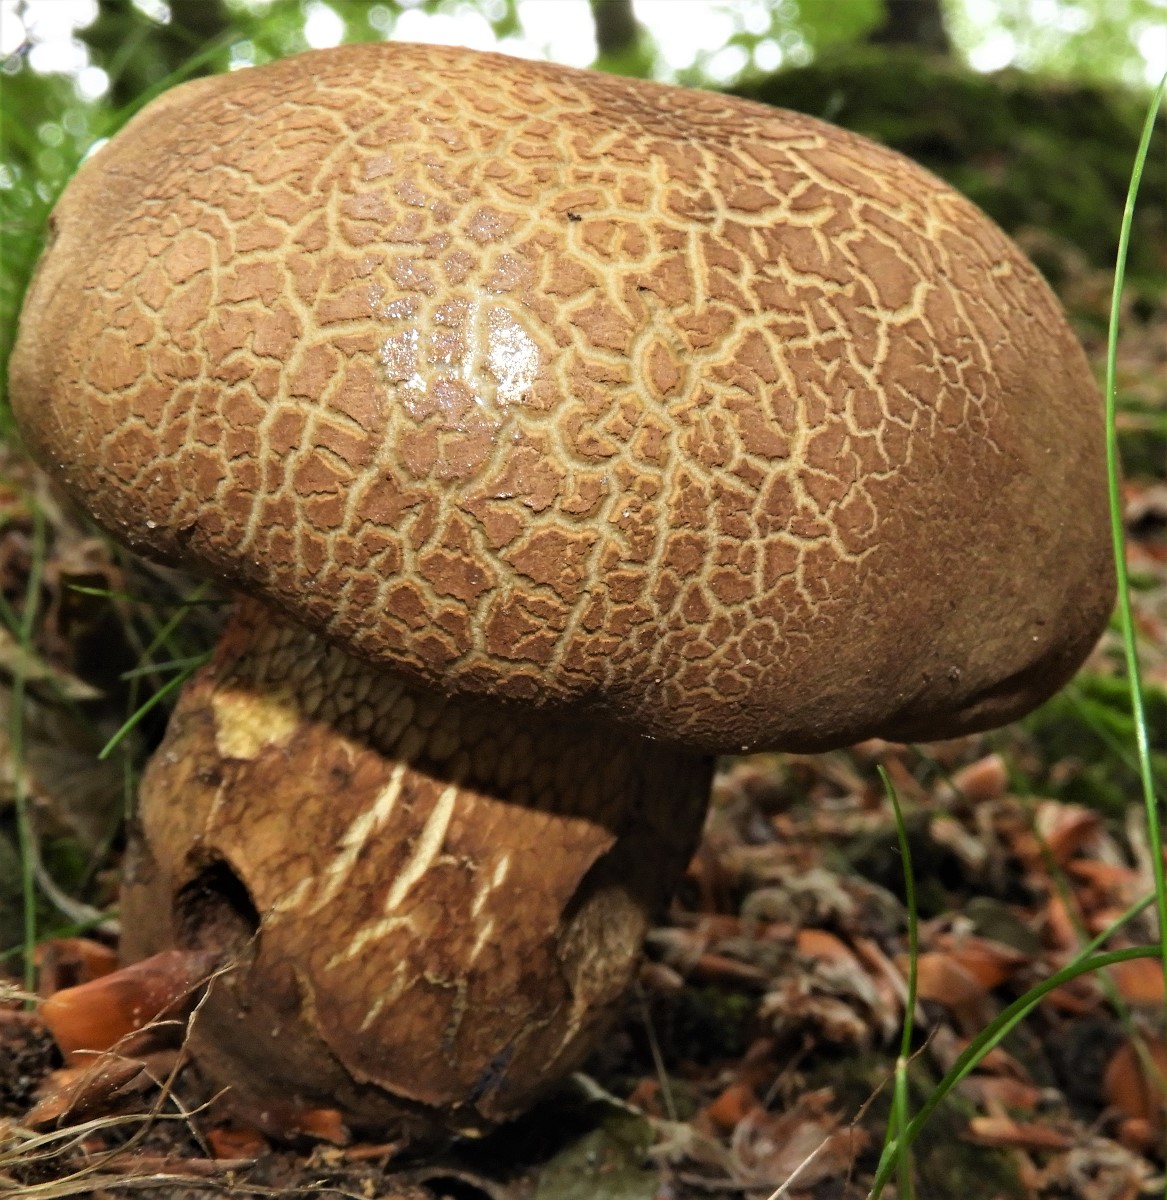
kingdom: Fungi
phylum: Basidiomycota
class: Agaricomycetes
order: Boletales
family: Boletaceae
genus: Suillellus
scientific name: Suillellus luridus
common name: netstokket indigorørhat
